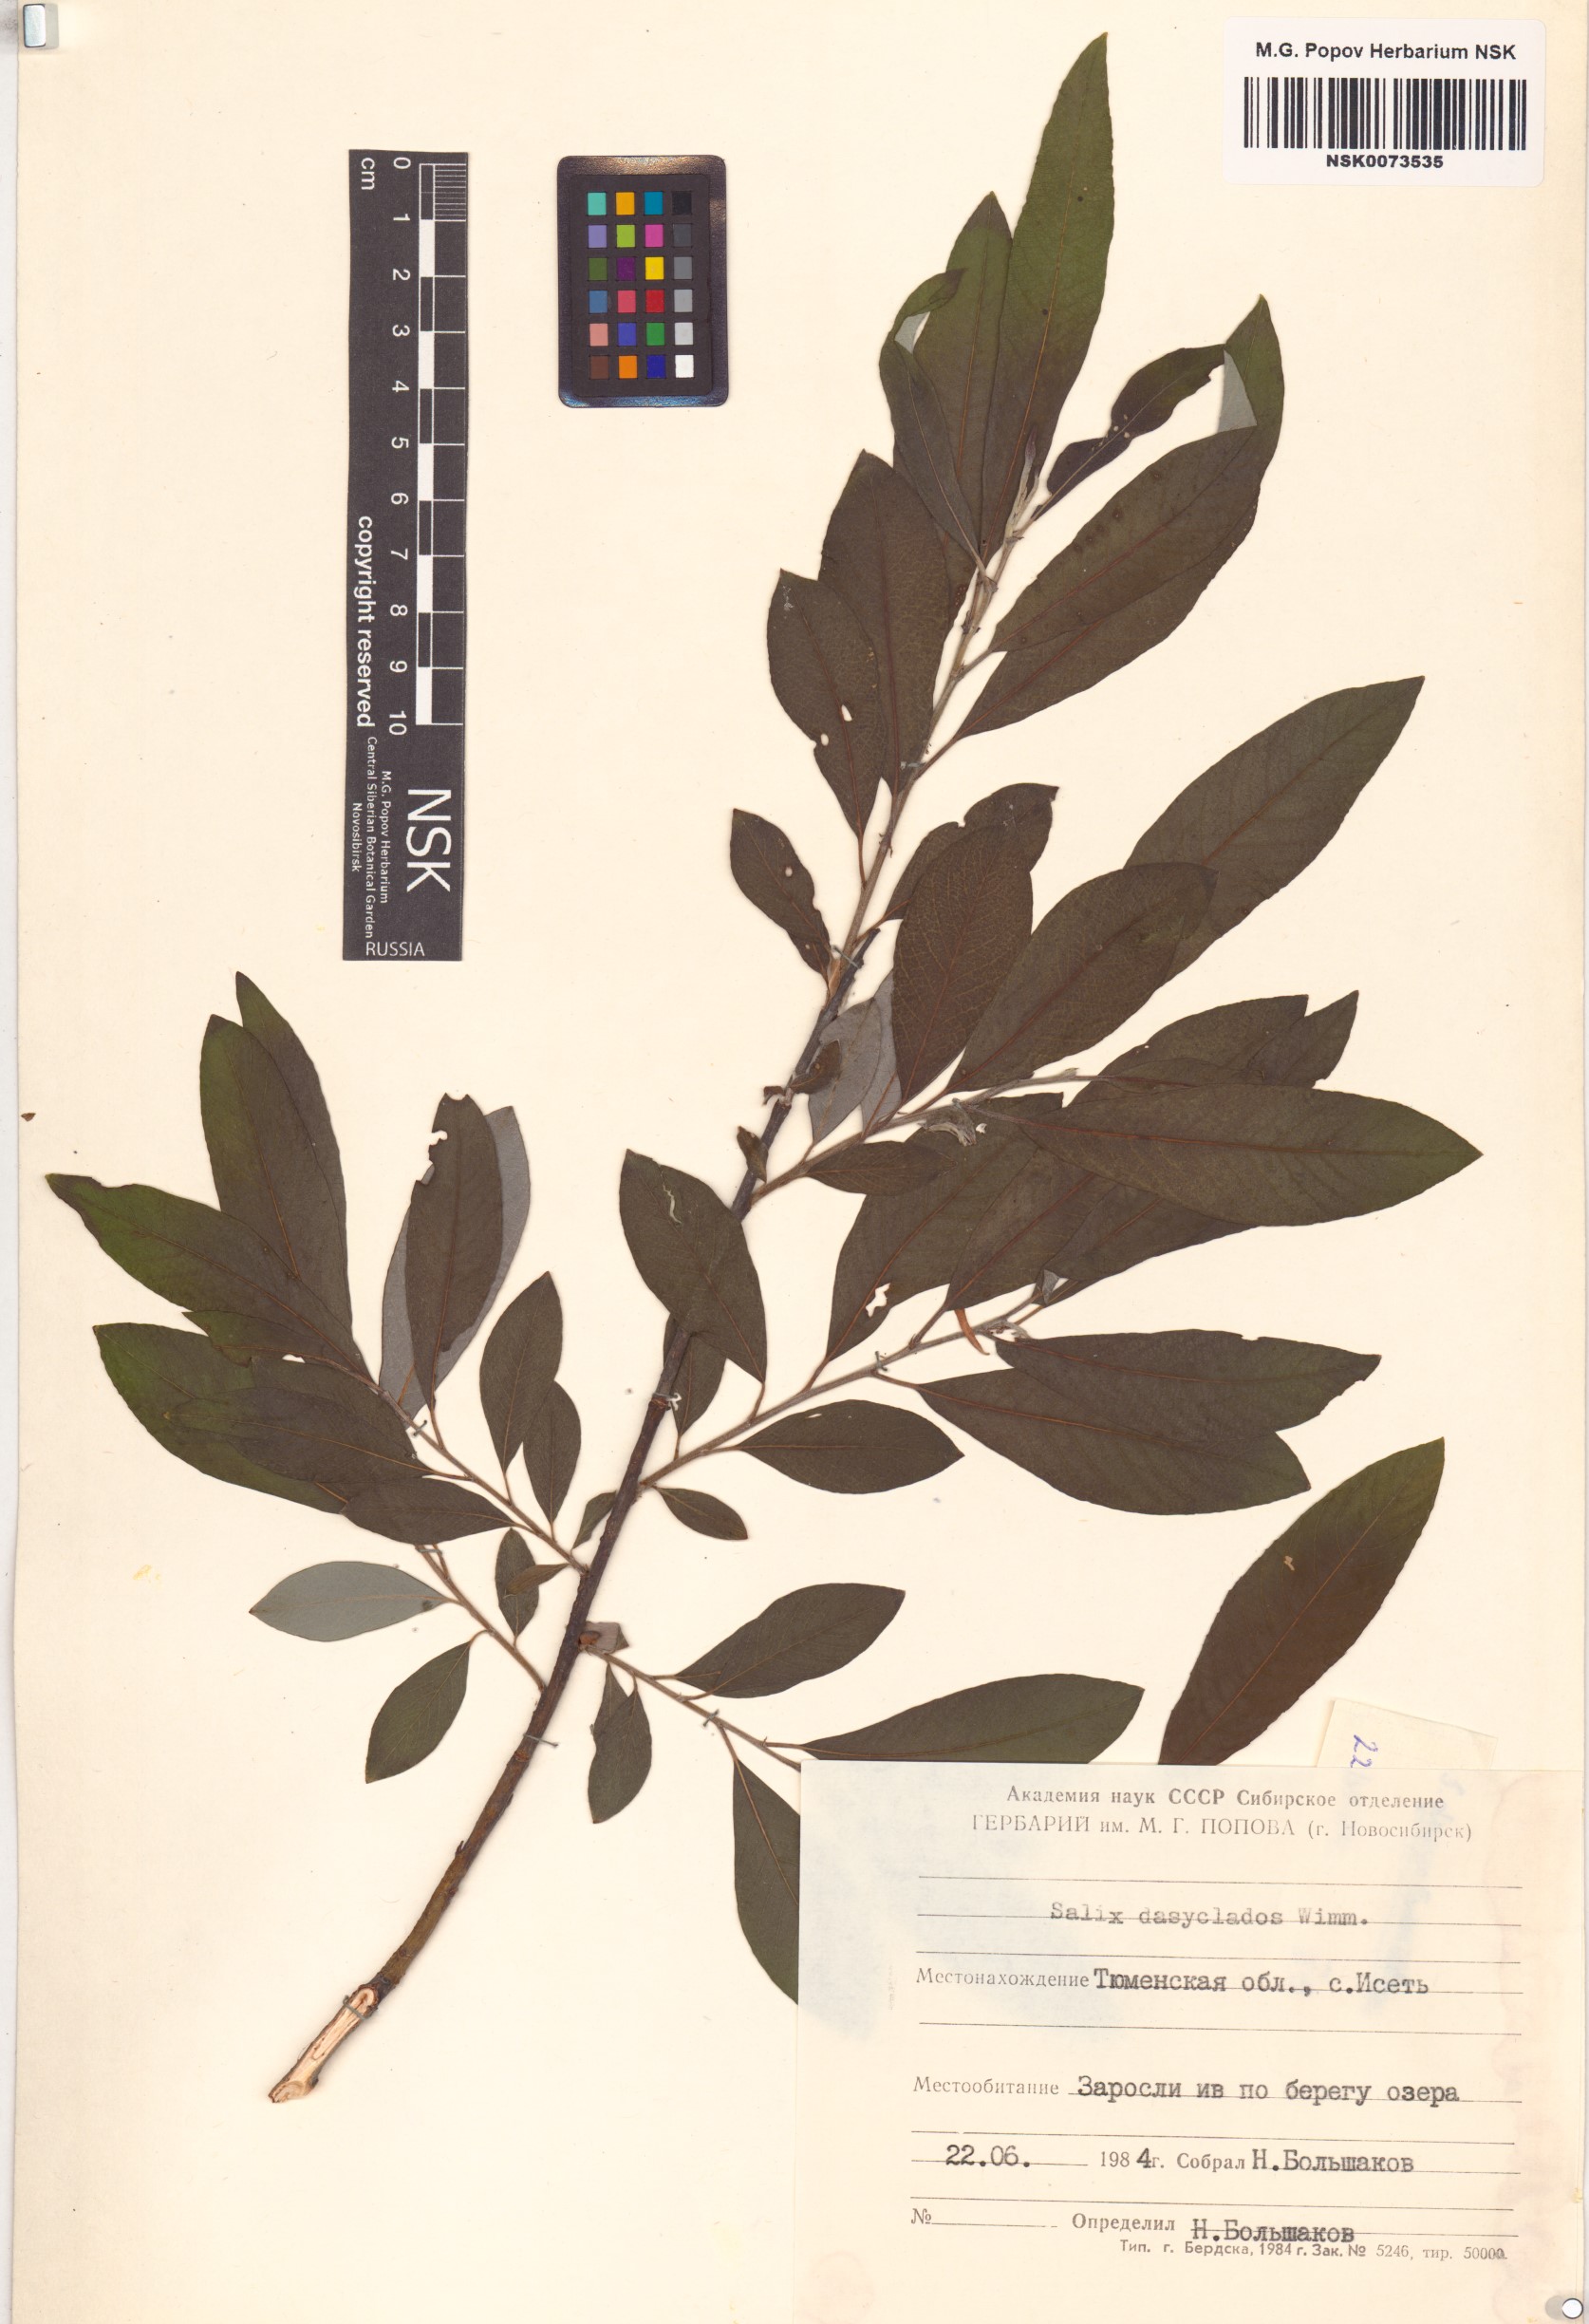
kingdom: Plantae
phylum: Tracheophyta
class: Magnoliopsida
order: Malpighiales
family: Salicaceae
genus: Salix
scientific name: Salix gmelinii
